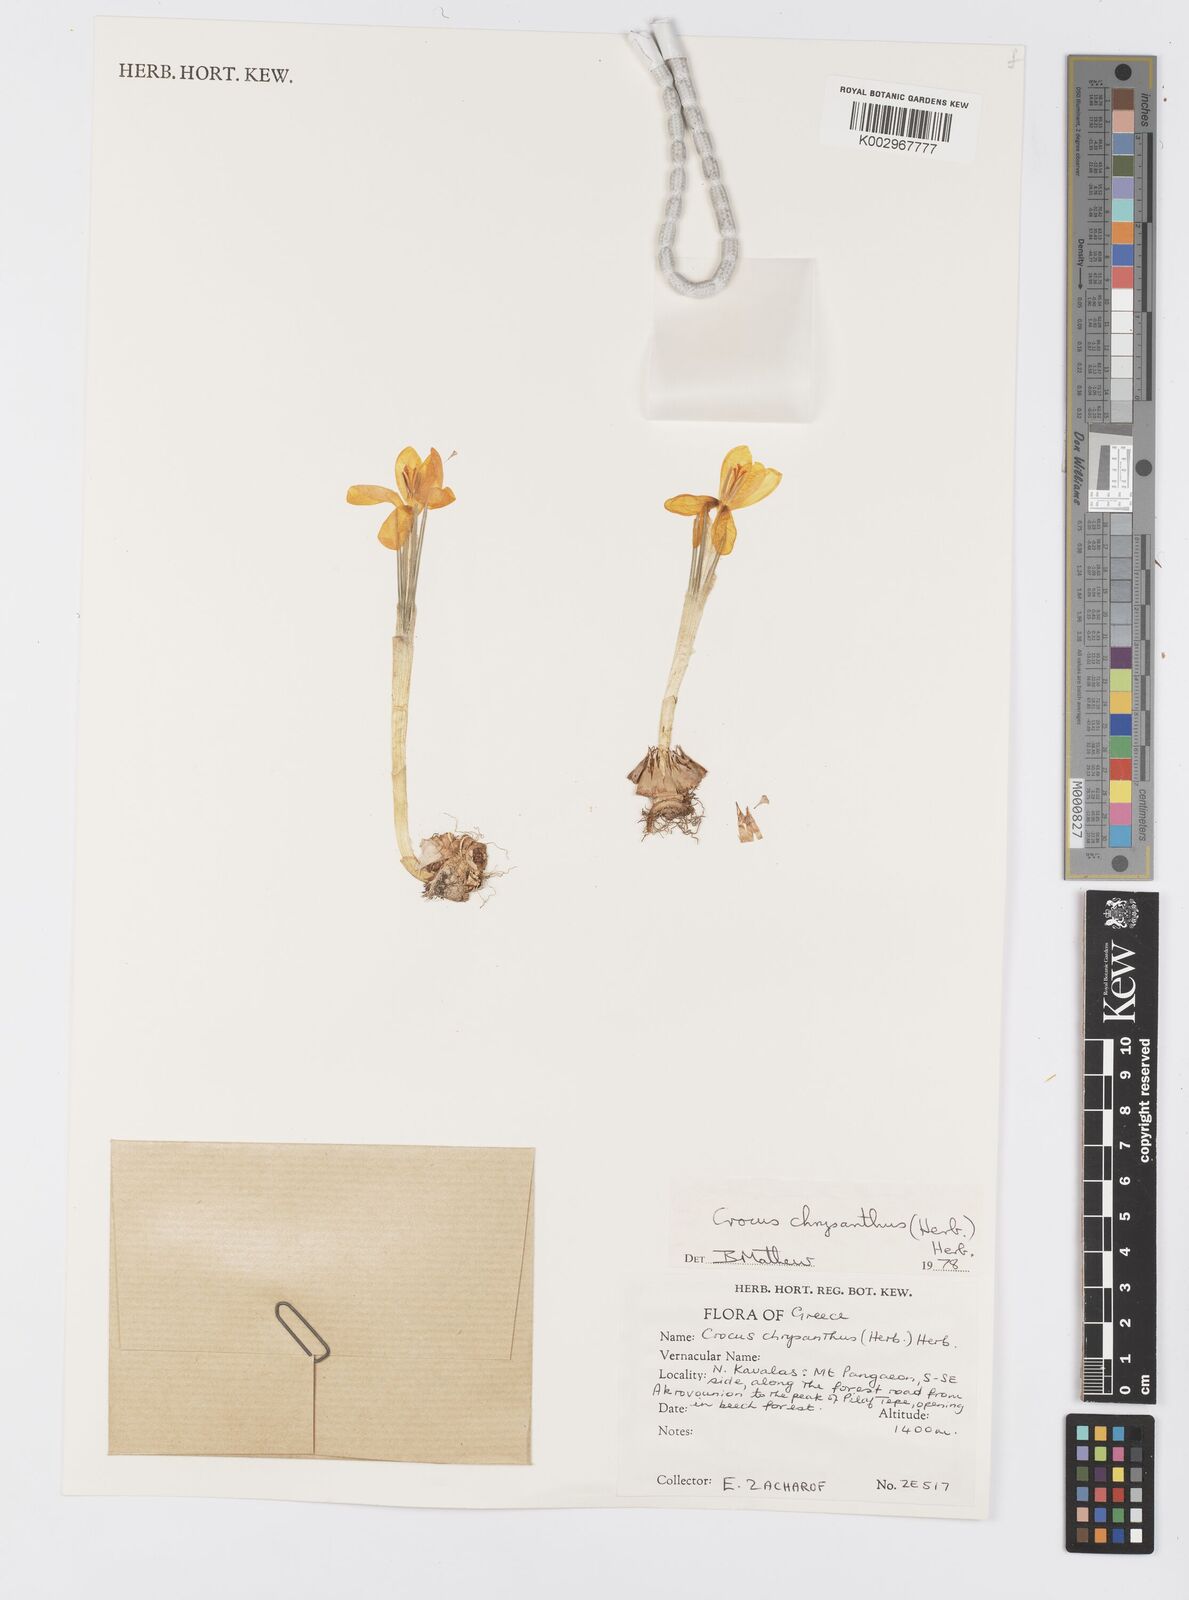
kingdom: Plantae
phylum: Tracheophyta
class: Liliopsida
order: Asparagales
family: Iridaceae
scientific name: Iridaceae
